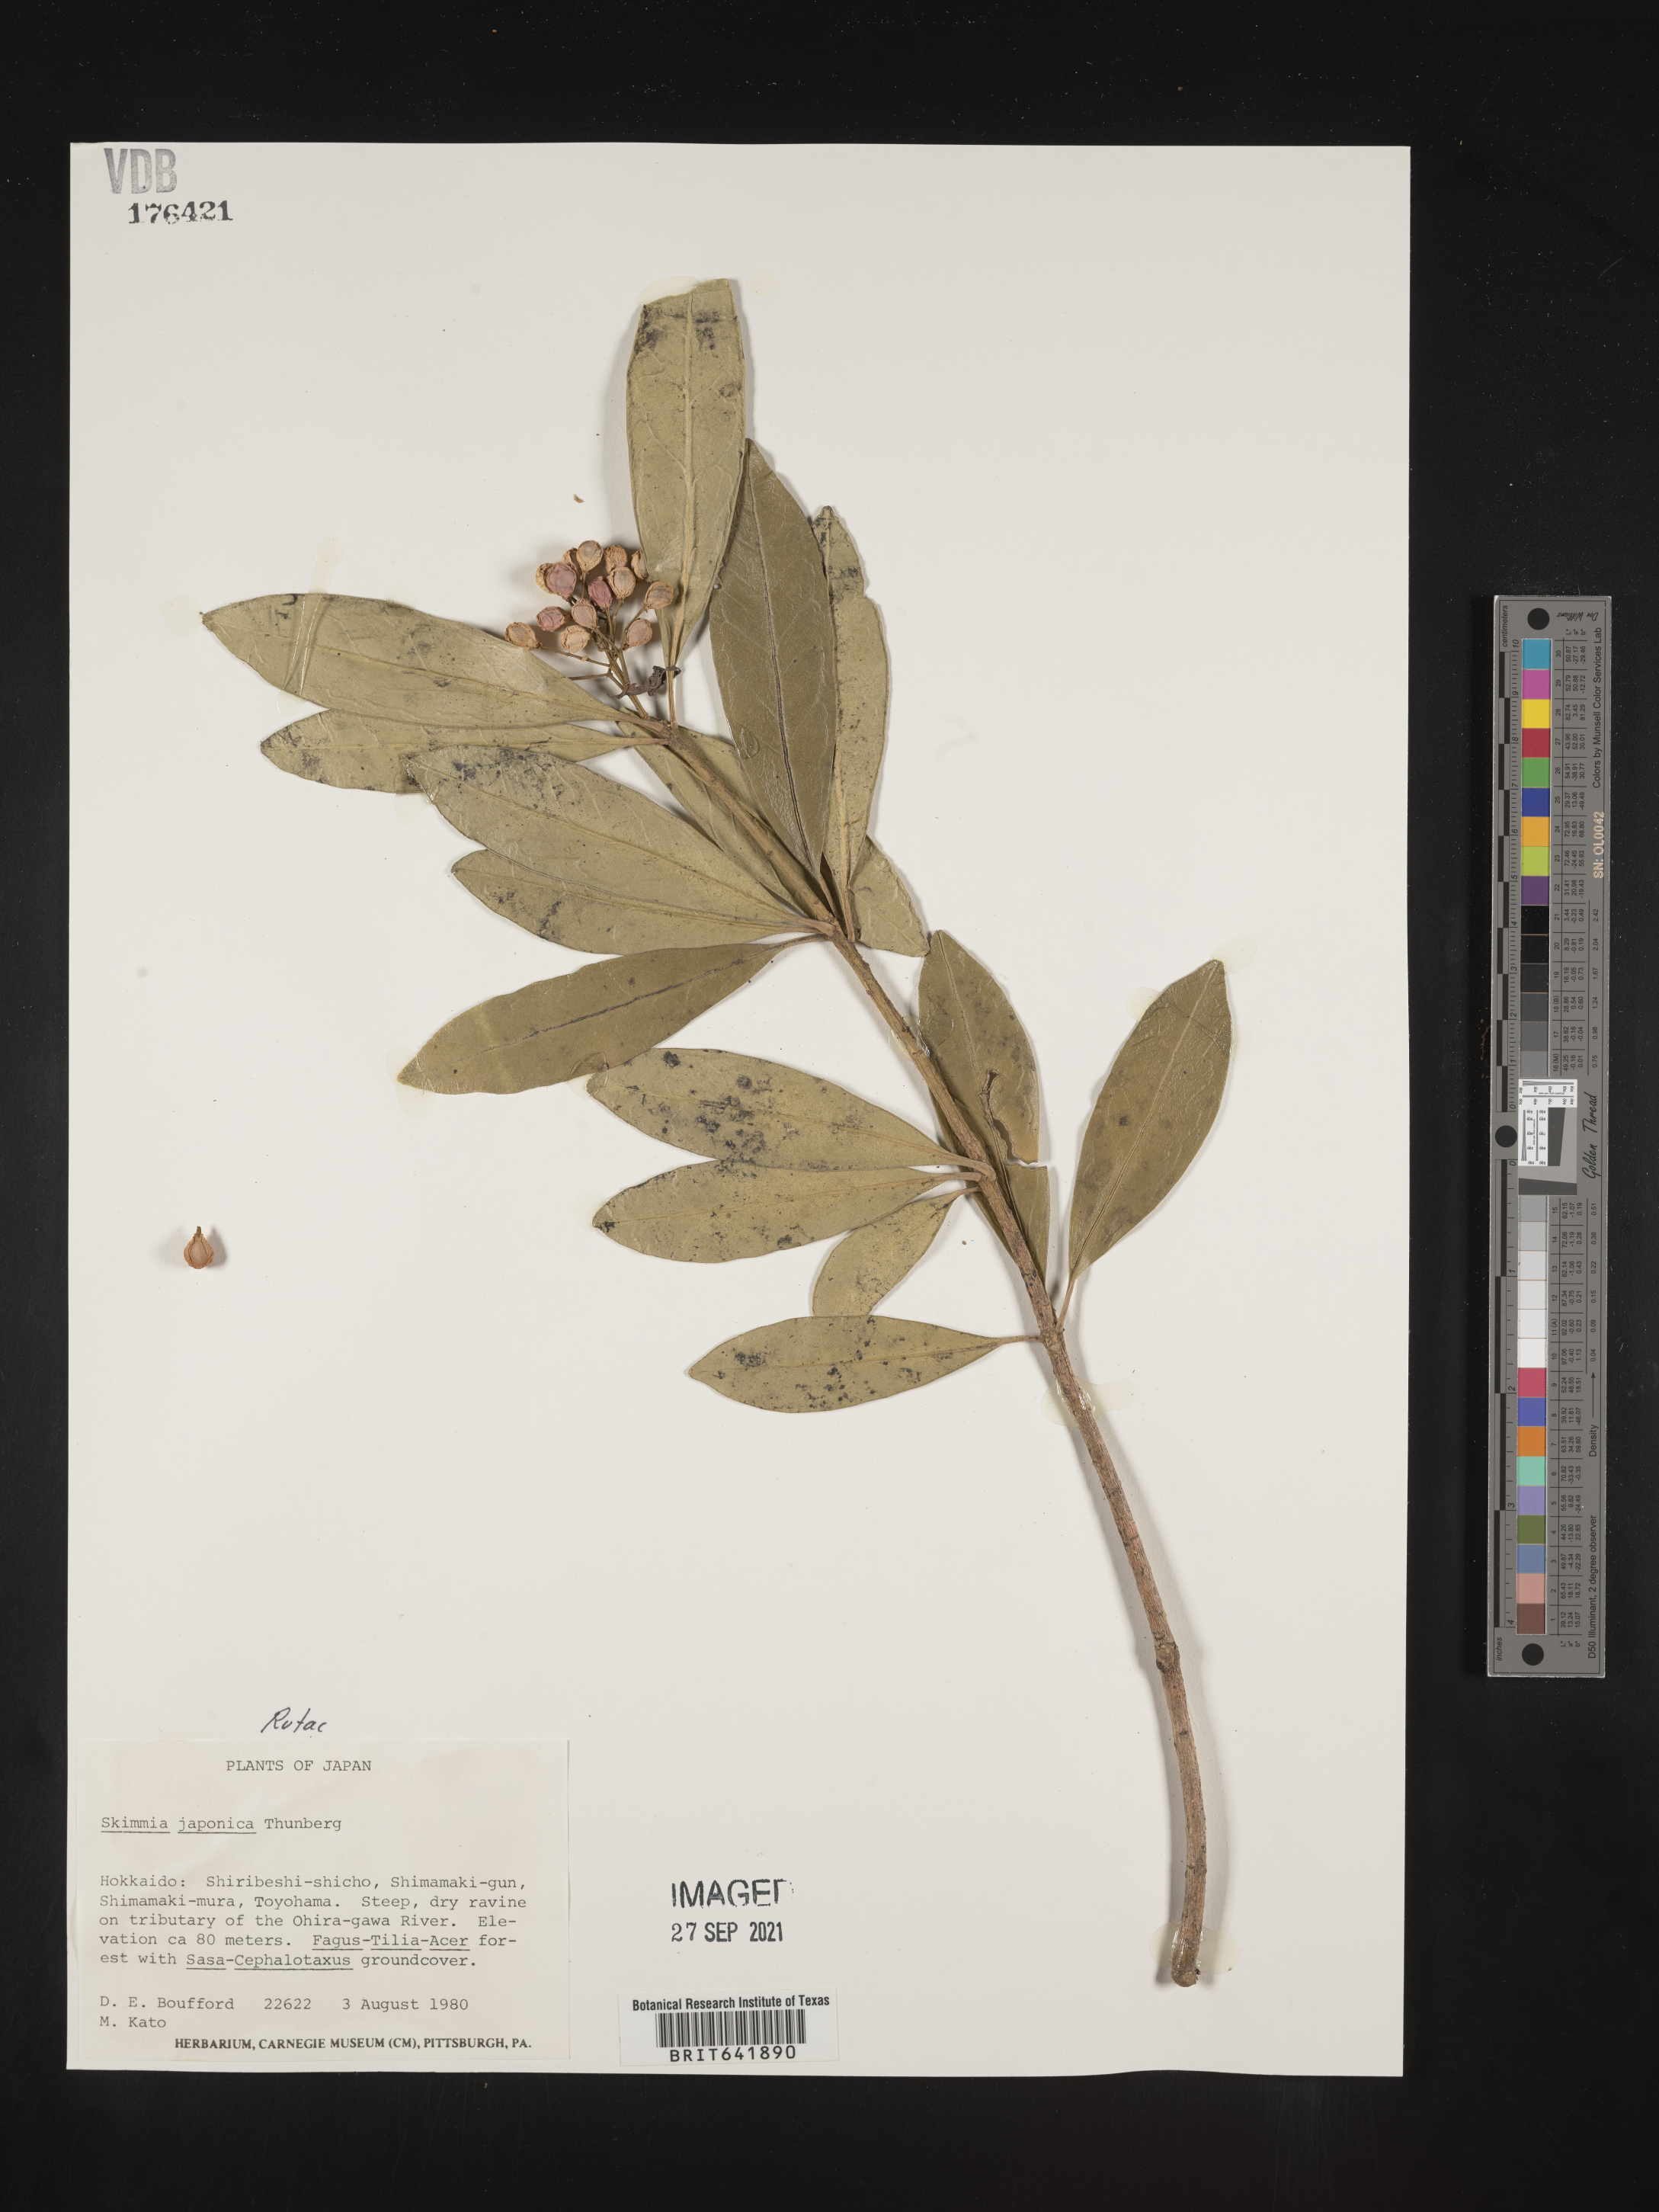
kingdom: Plantae
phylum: Tracheophyta
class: Magnoliopsida
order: Sapindales
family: Rutaceae
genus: Skimmia
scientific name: Skimmia
